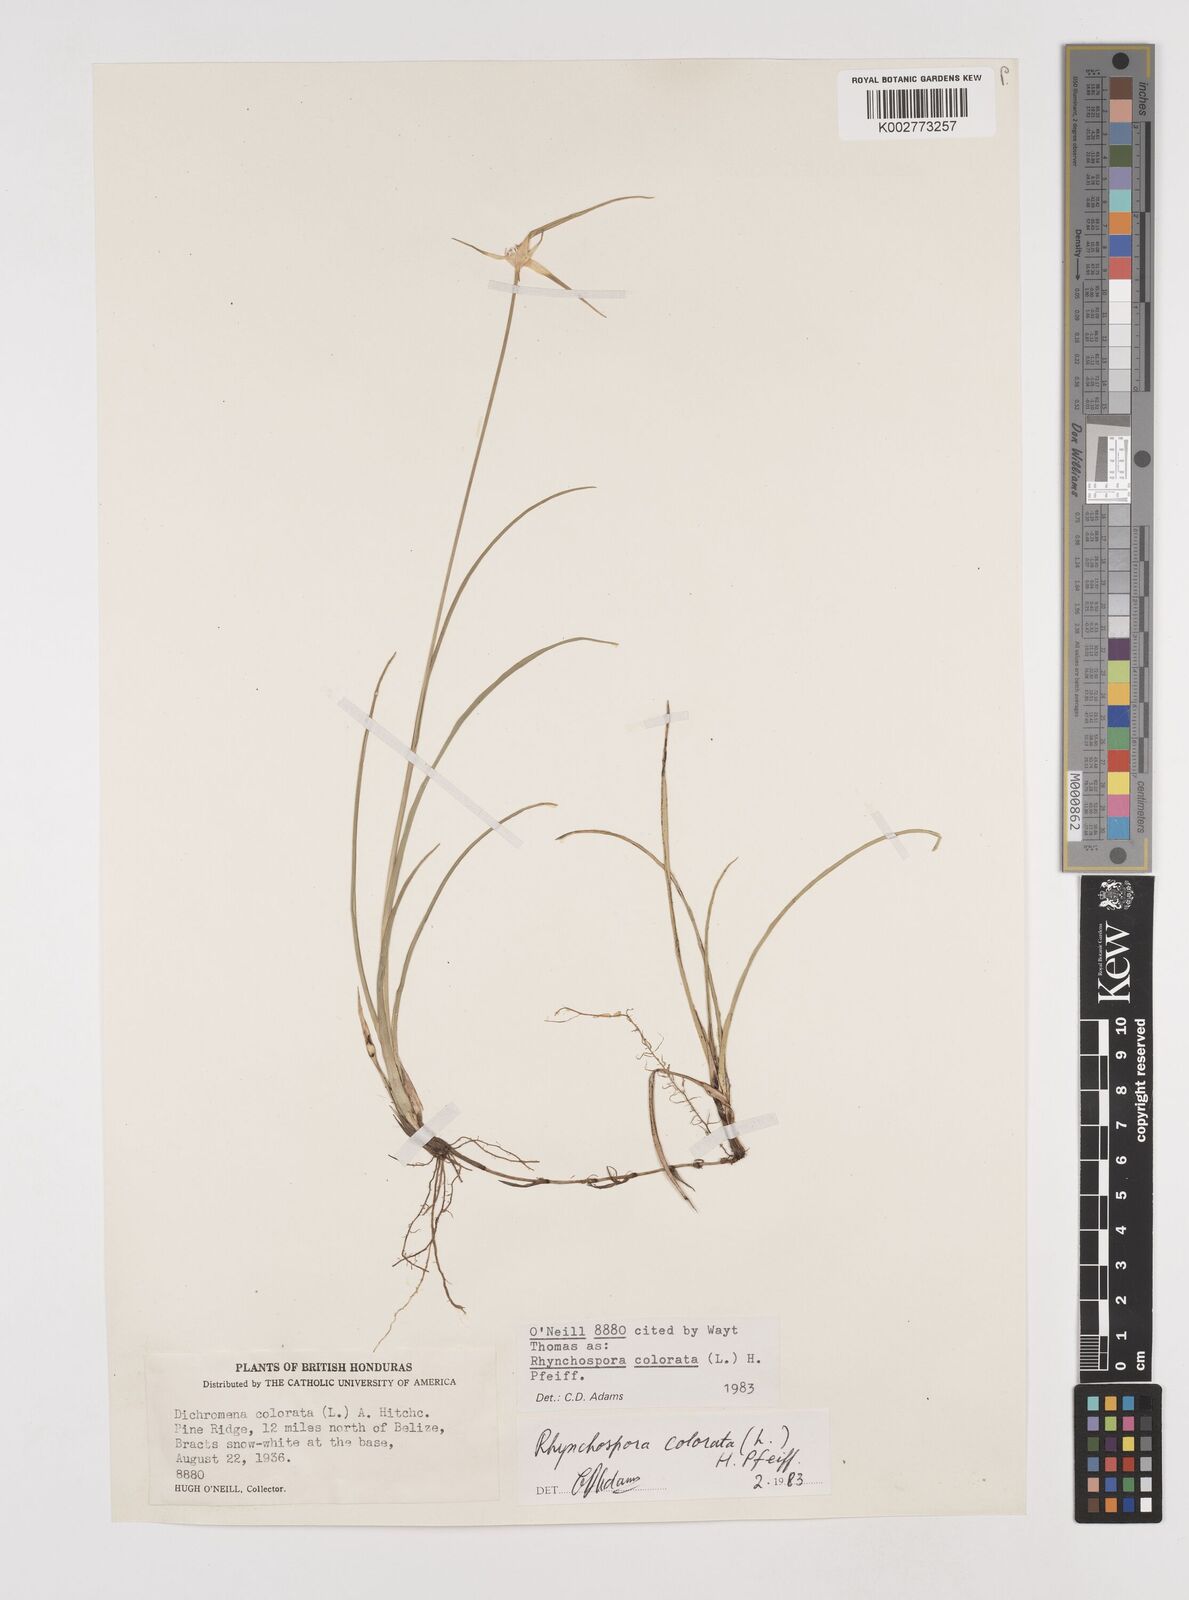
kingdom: Plantae
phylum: Tracheophyta
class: Liliopsida
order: Poales
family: Cyperaceae
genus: Rhynchospora
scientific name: Rhynchospora colorata
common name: Star sedge
